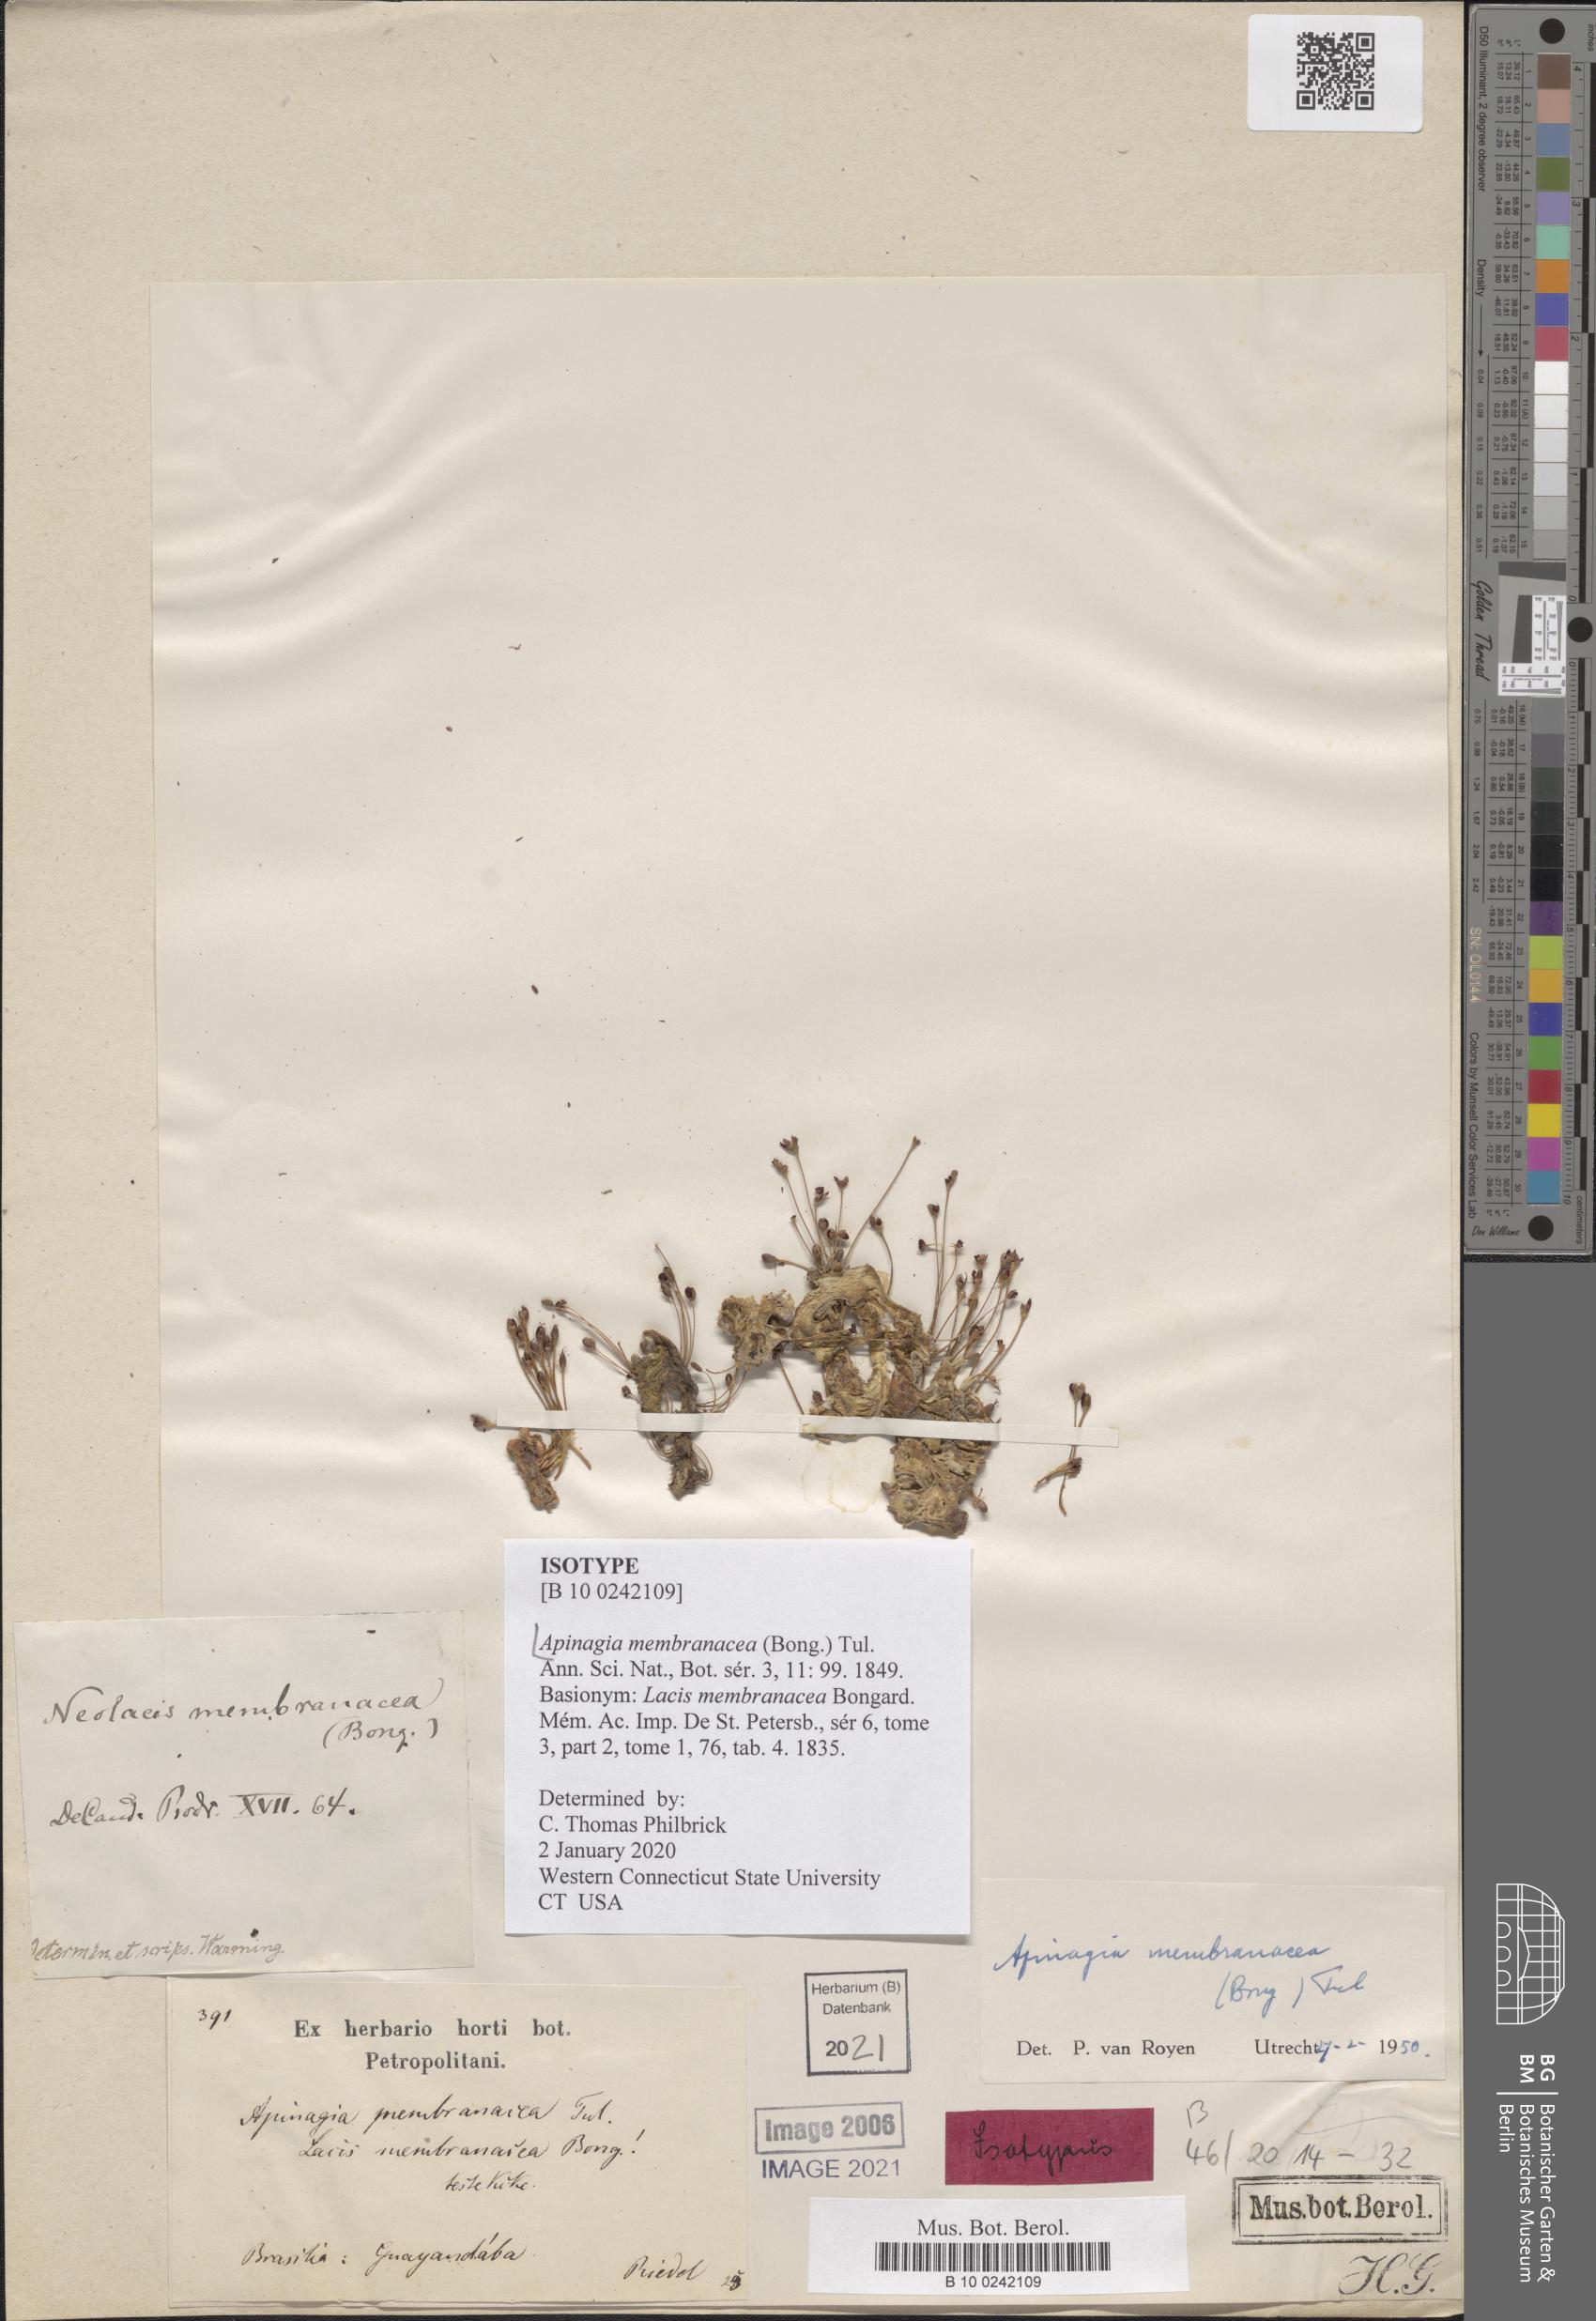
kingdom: Plantae
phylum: Tracheophyta
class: Magnoliopsida
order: Malpighiales
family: Podostemaceae
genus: Apinagia
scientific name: Apinagia membranacea
